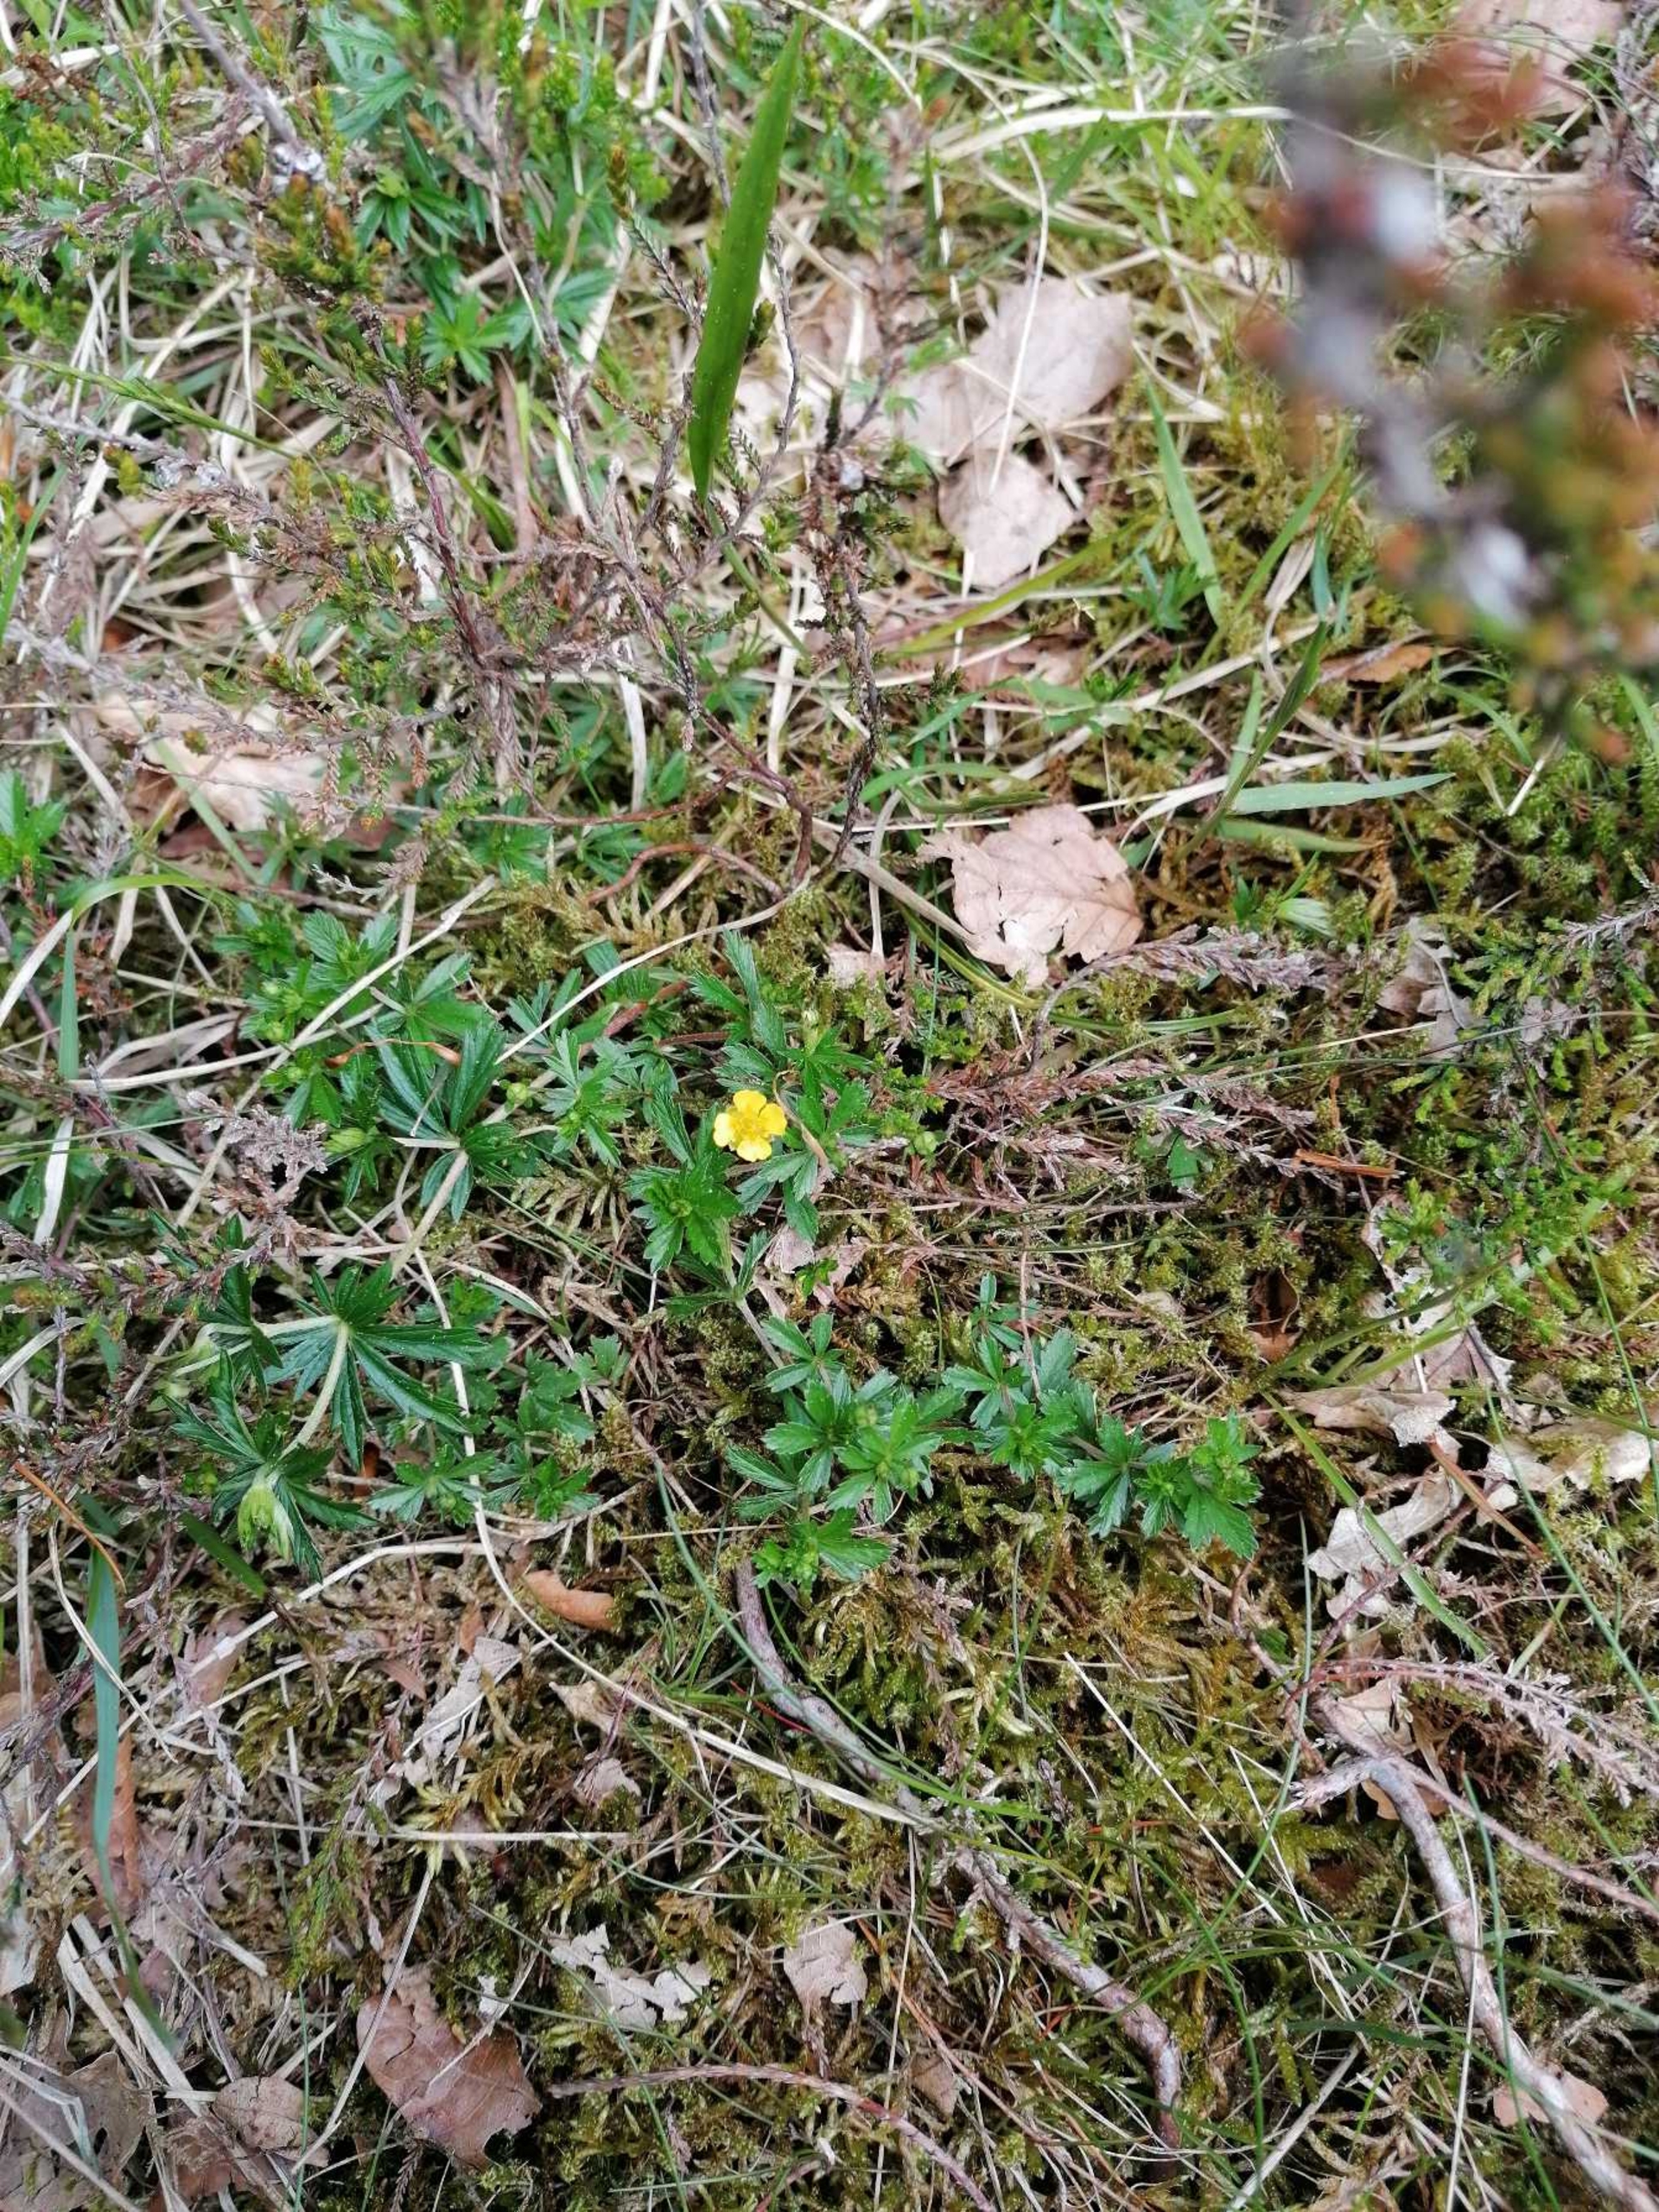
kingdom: Plantae
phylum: Tracheophyta
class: Magnoliopsida
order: Rosales
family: Rosaceae
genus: Potentilla
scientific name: Potentilla erecta
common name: Tormentil
